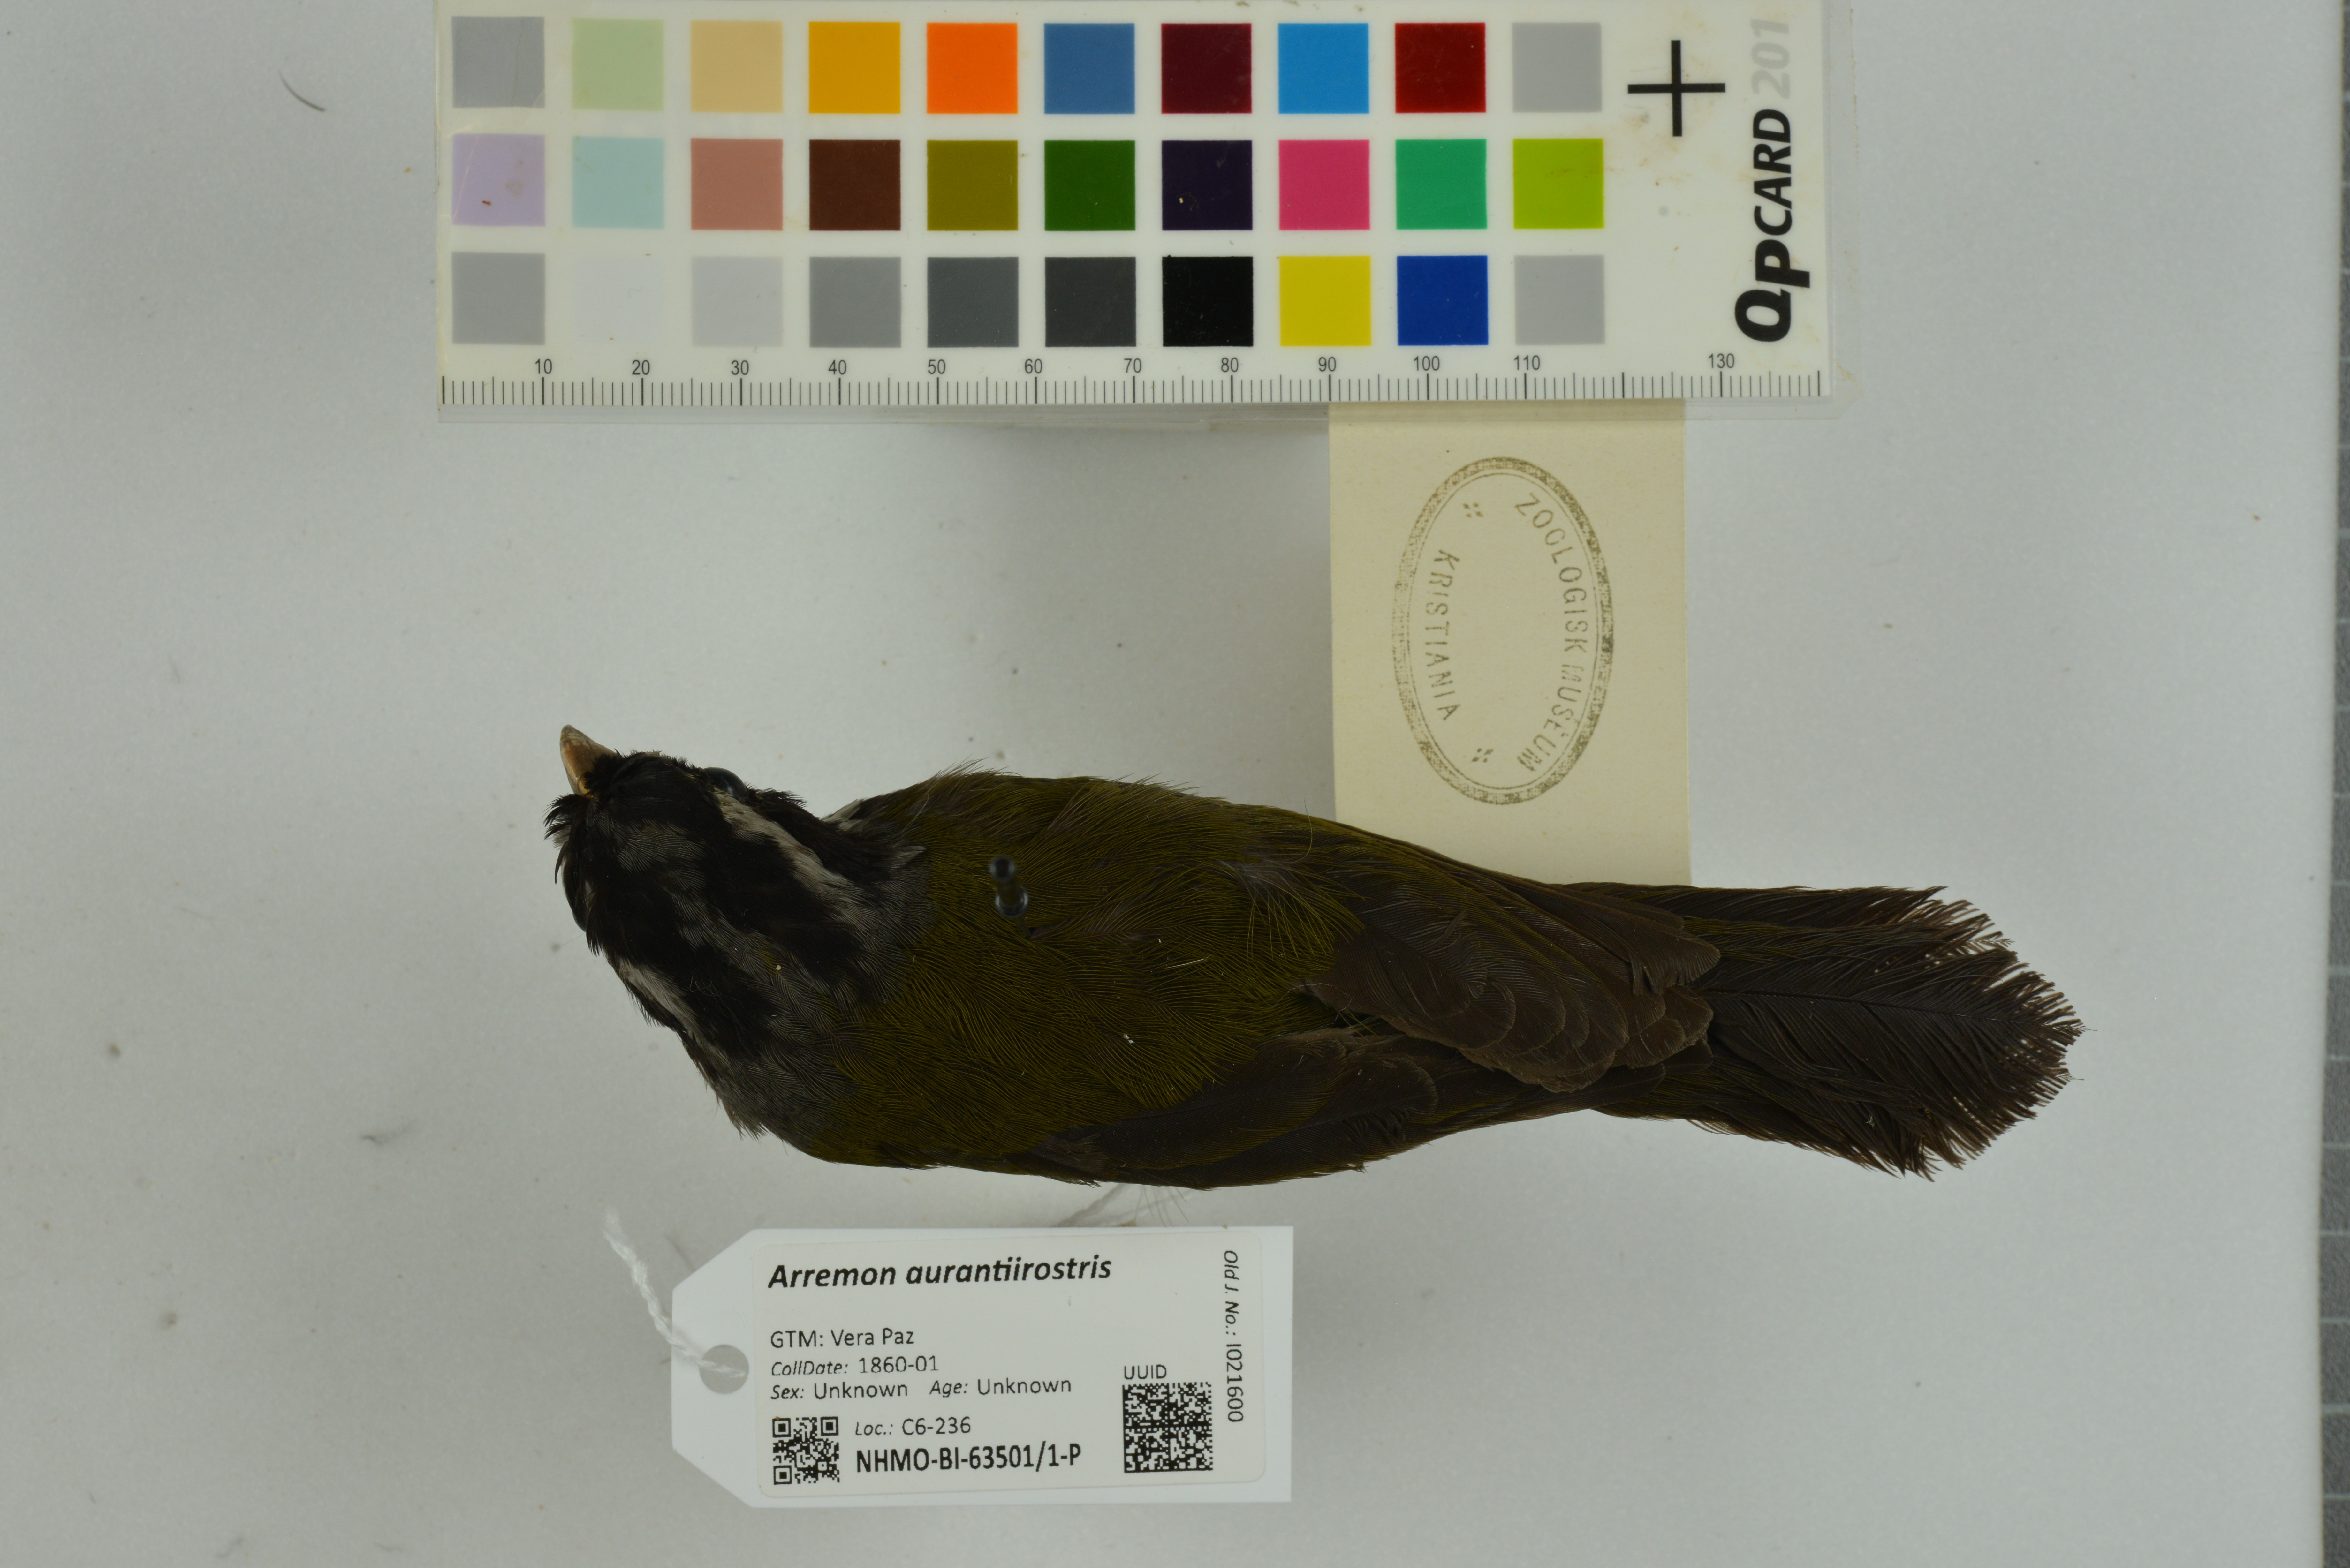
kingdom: Animalia
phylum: Chordata
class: Aves
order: Passeriformes
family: Passerellidae
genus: Arremon
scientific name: Arremon aurantiirostris
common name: Orange-billed sparrow
